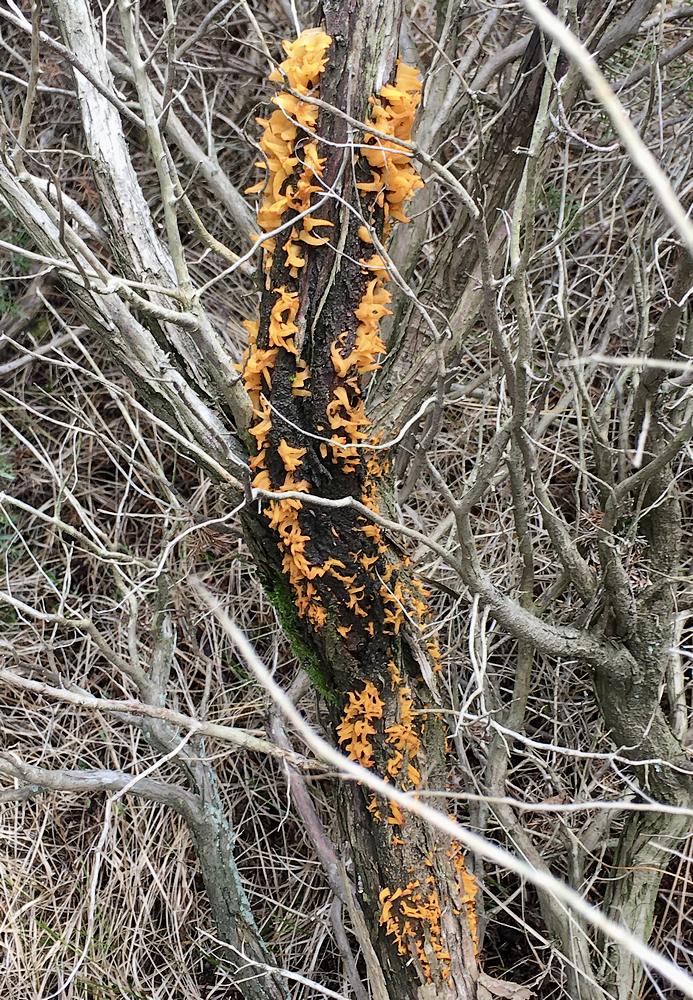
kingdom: Fungi
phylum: Basidiomycota
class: Pucciniomycetes
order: Pucciniales
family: Gymnosporangiaceae
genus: Gymnosporangium
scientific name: Gymnosporangium clavariiforme
